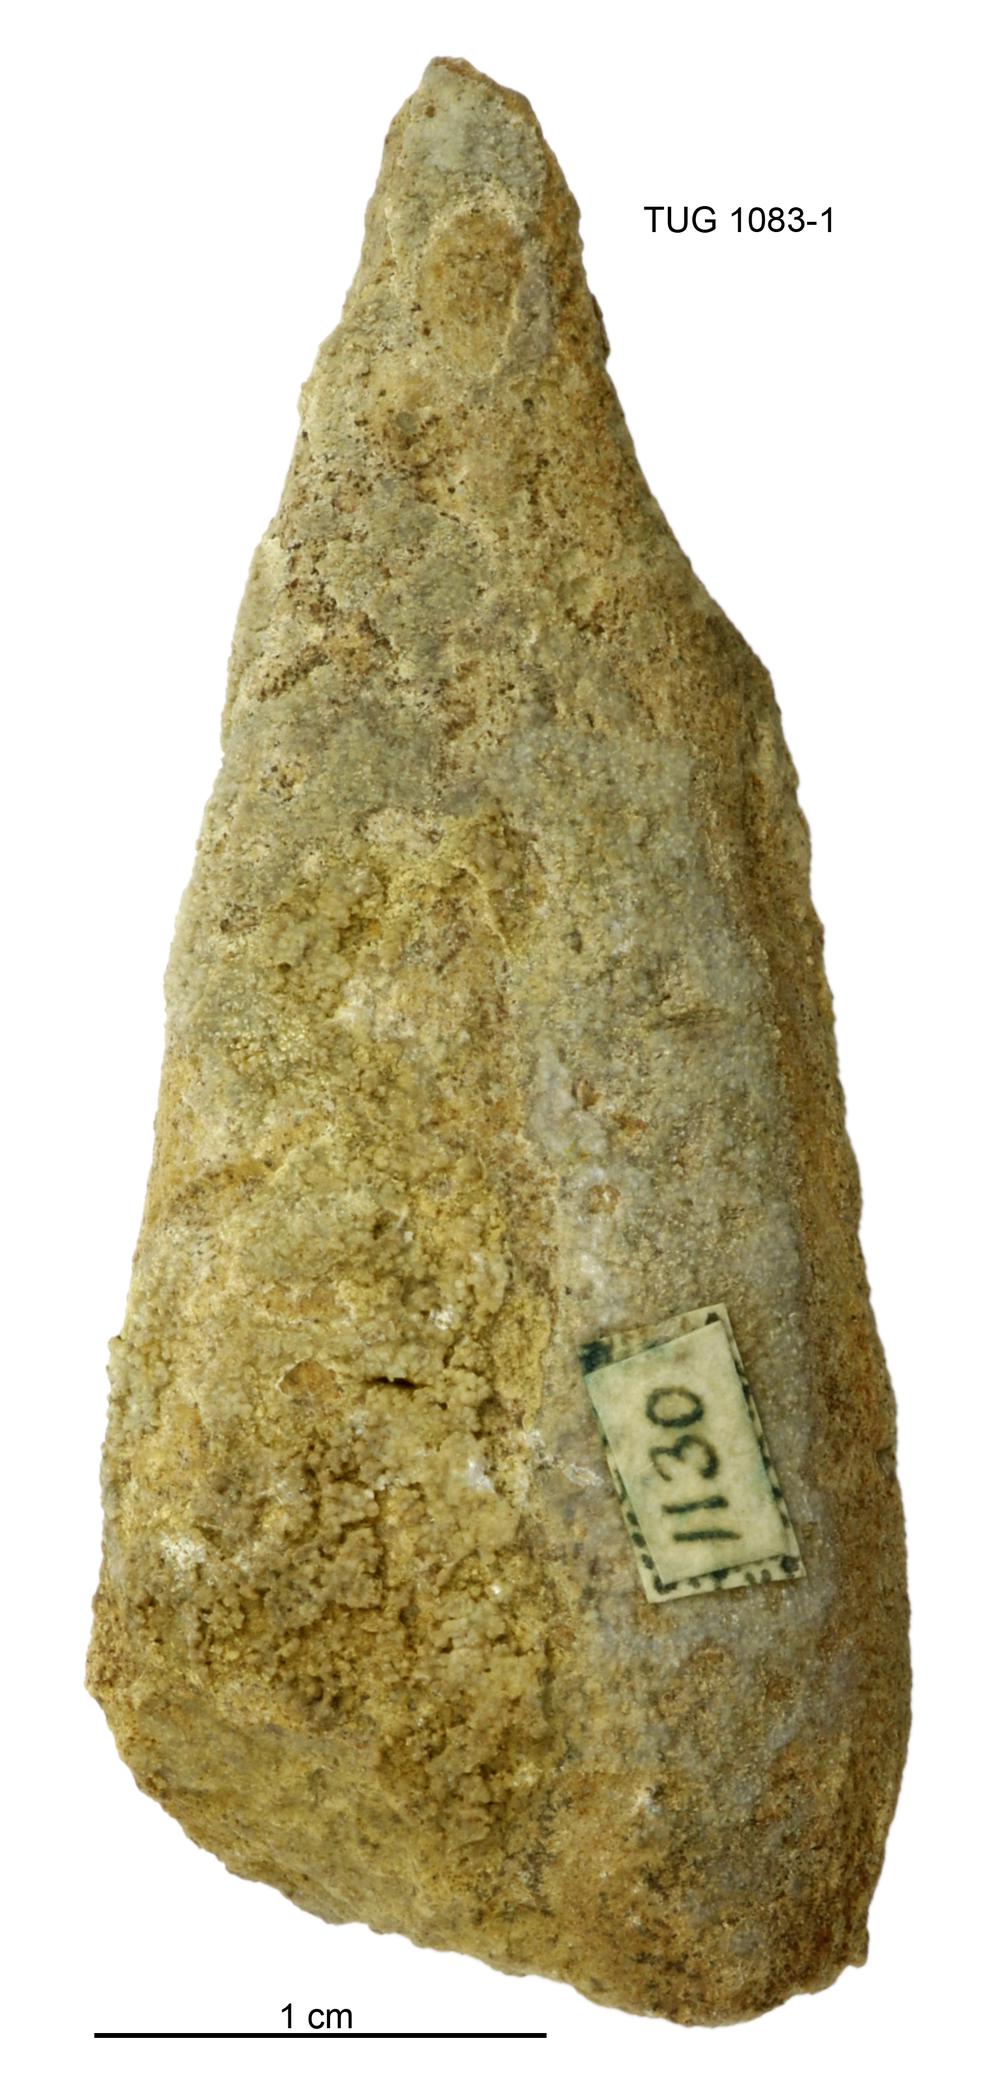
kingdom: Animalia
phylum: Annelida
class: Polychaeta
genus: Hyolithes
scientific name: Hyolithes
